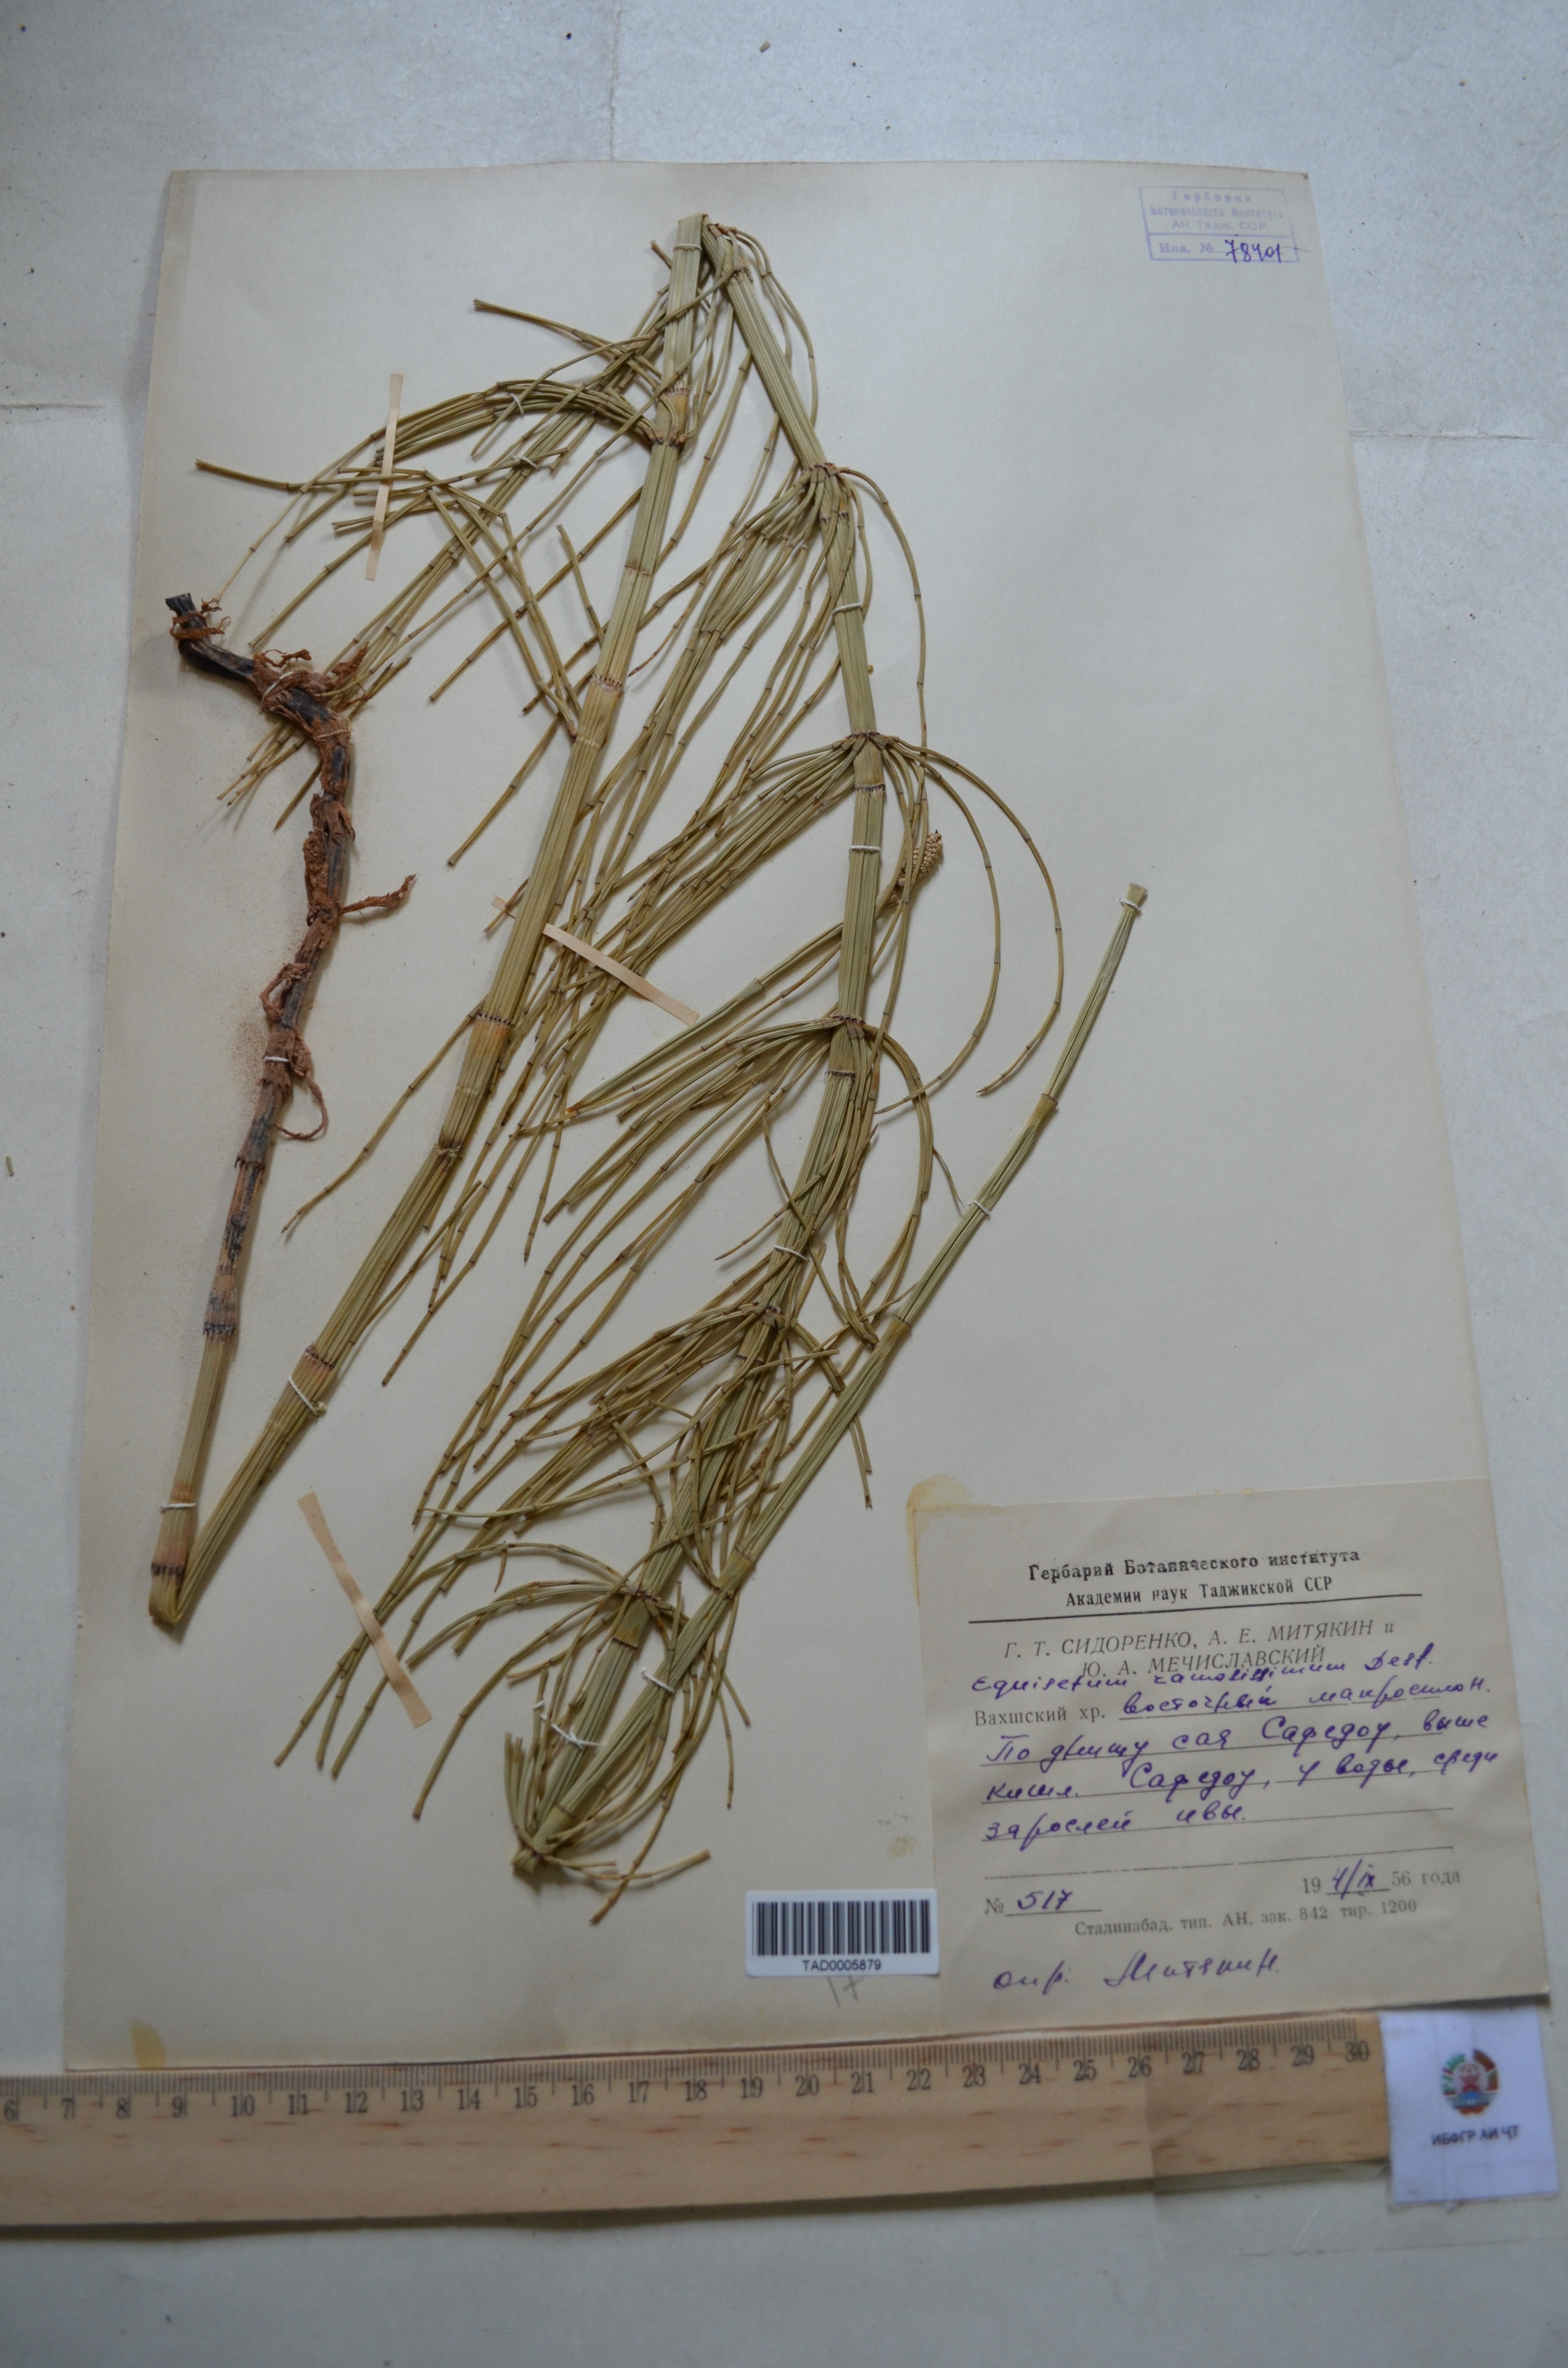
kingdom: Plantae
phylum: Tracheophyta
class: Polypodiopsida
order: Equisetales
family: Equisetaceae
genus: Equisetum
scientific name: Equisetum ramosissimum
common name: Branched horsetail
